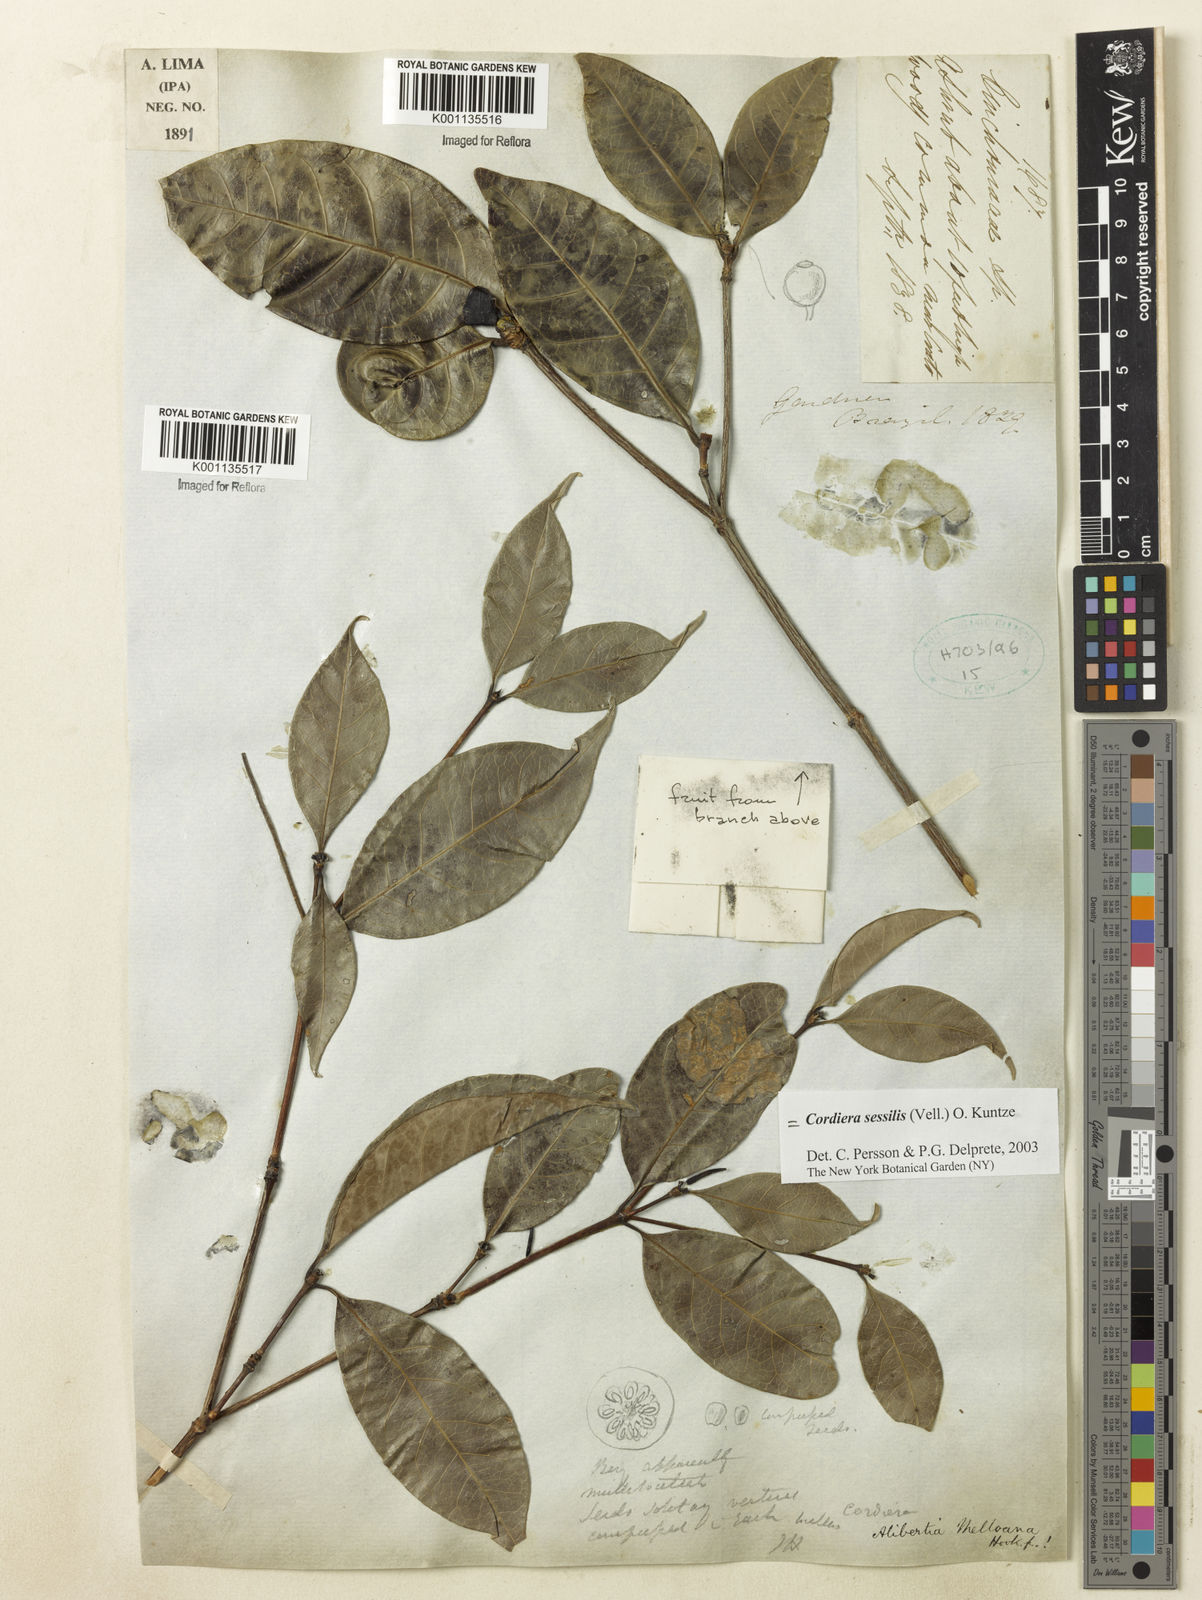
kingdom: Plantae
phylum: Tracheophyta
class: Magnoliopsida
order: Gentianales
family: Rubiaceae
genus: Cordiera
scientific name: Cordiera sessilis
